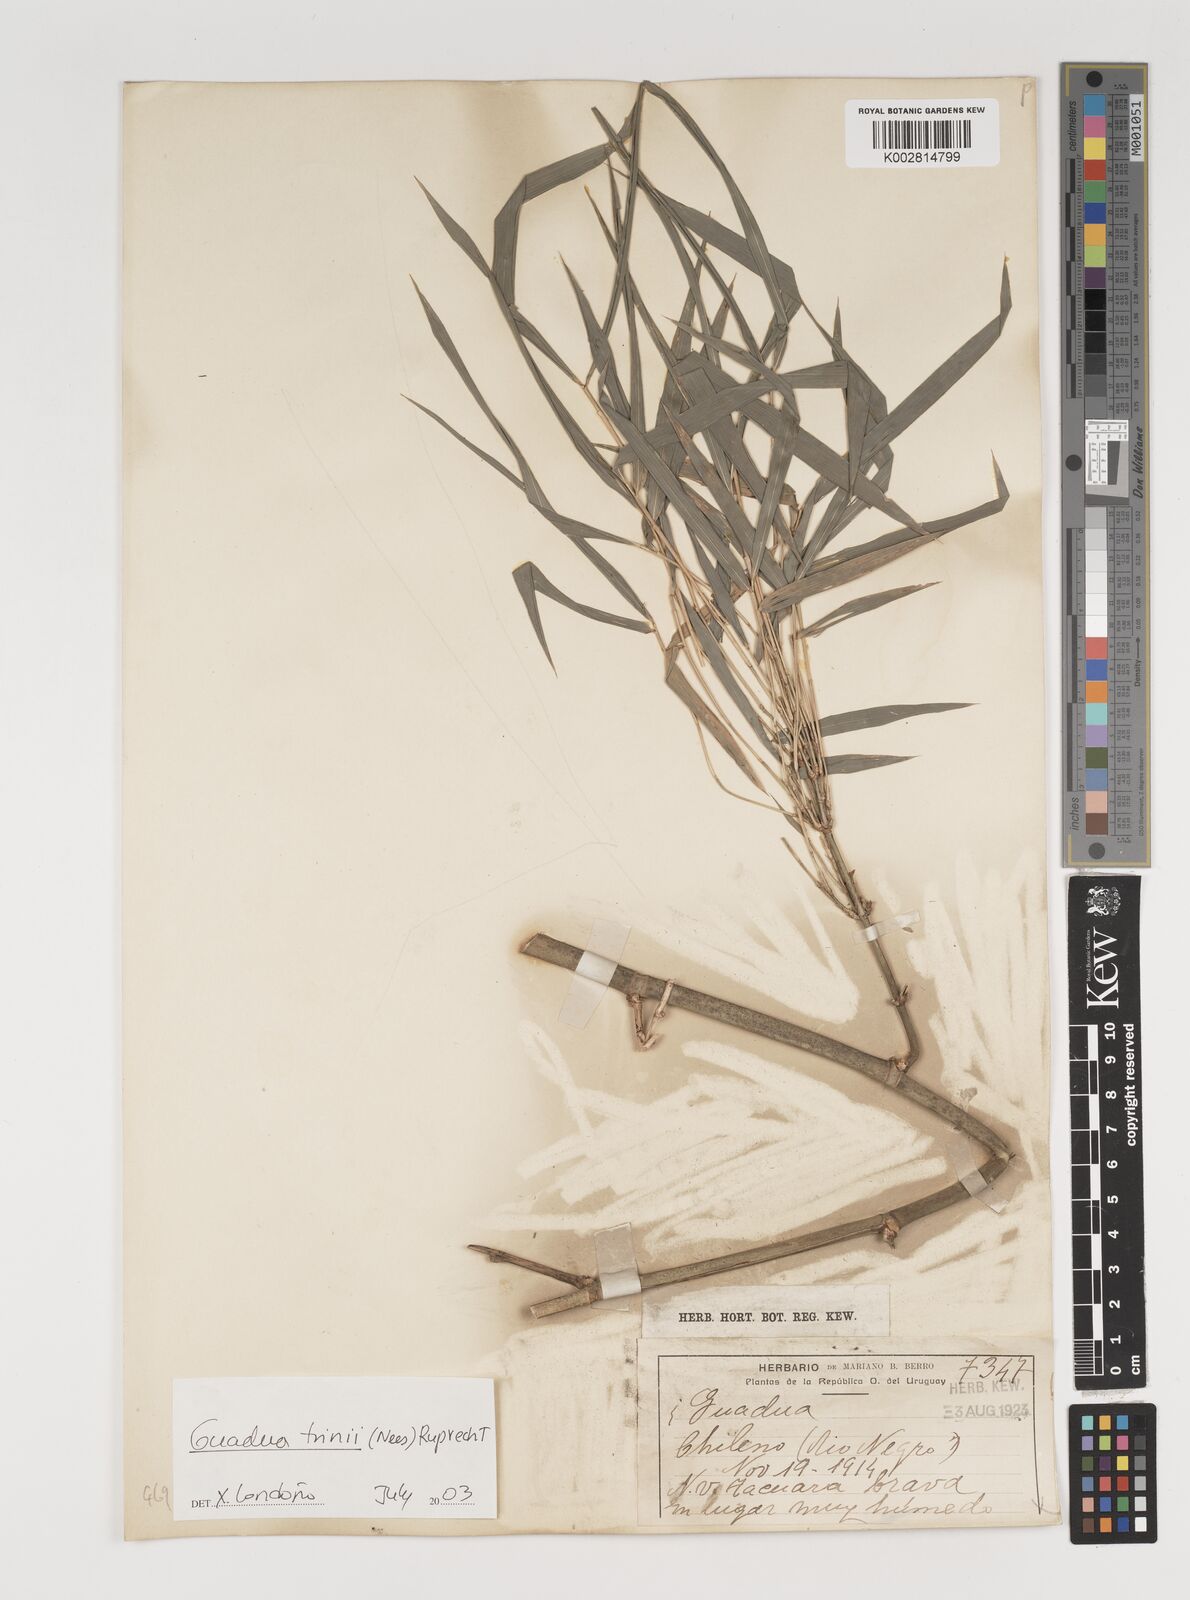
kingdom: Plantae
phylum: Tracheophyta
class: Liliopsida
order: Poales
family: Poaceae
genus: Guadua
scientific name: Guadua trinii
